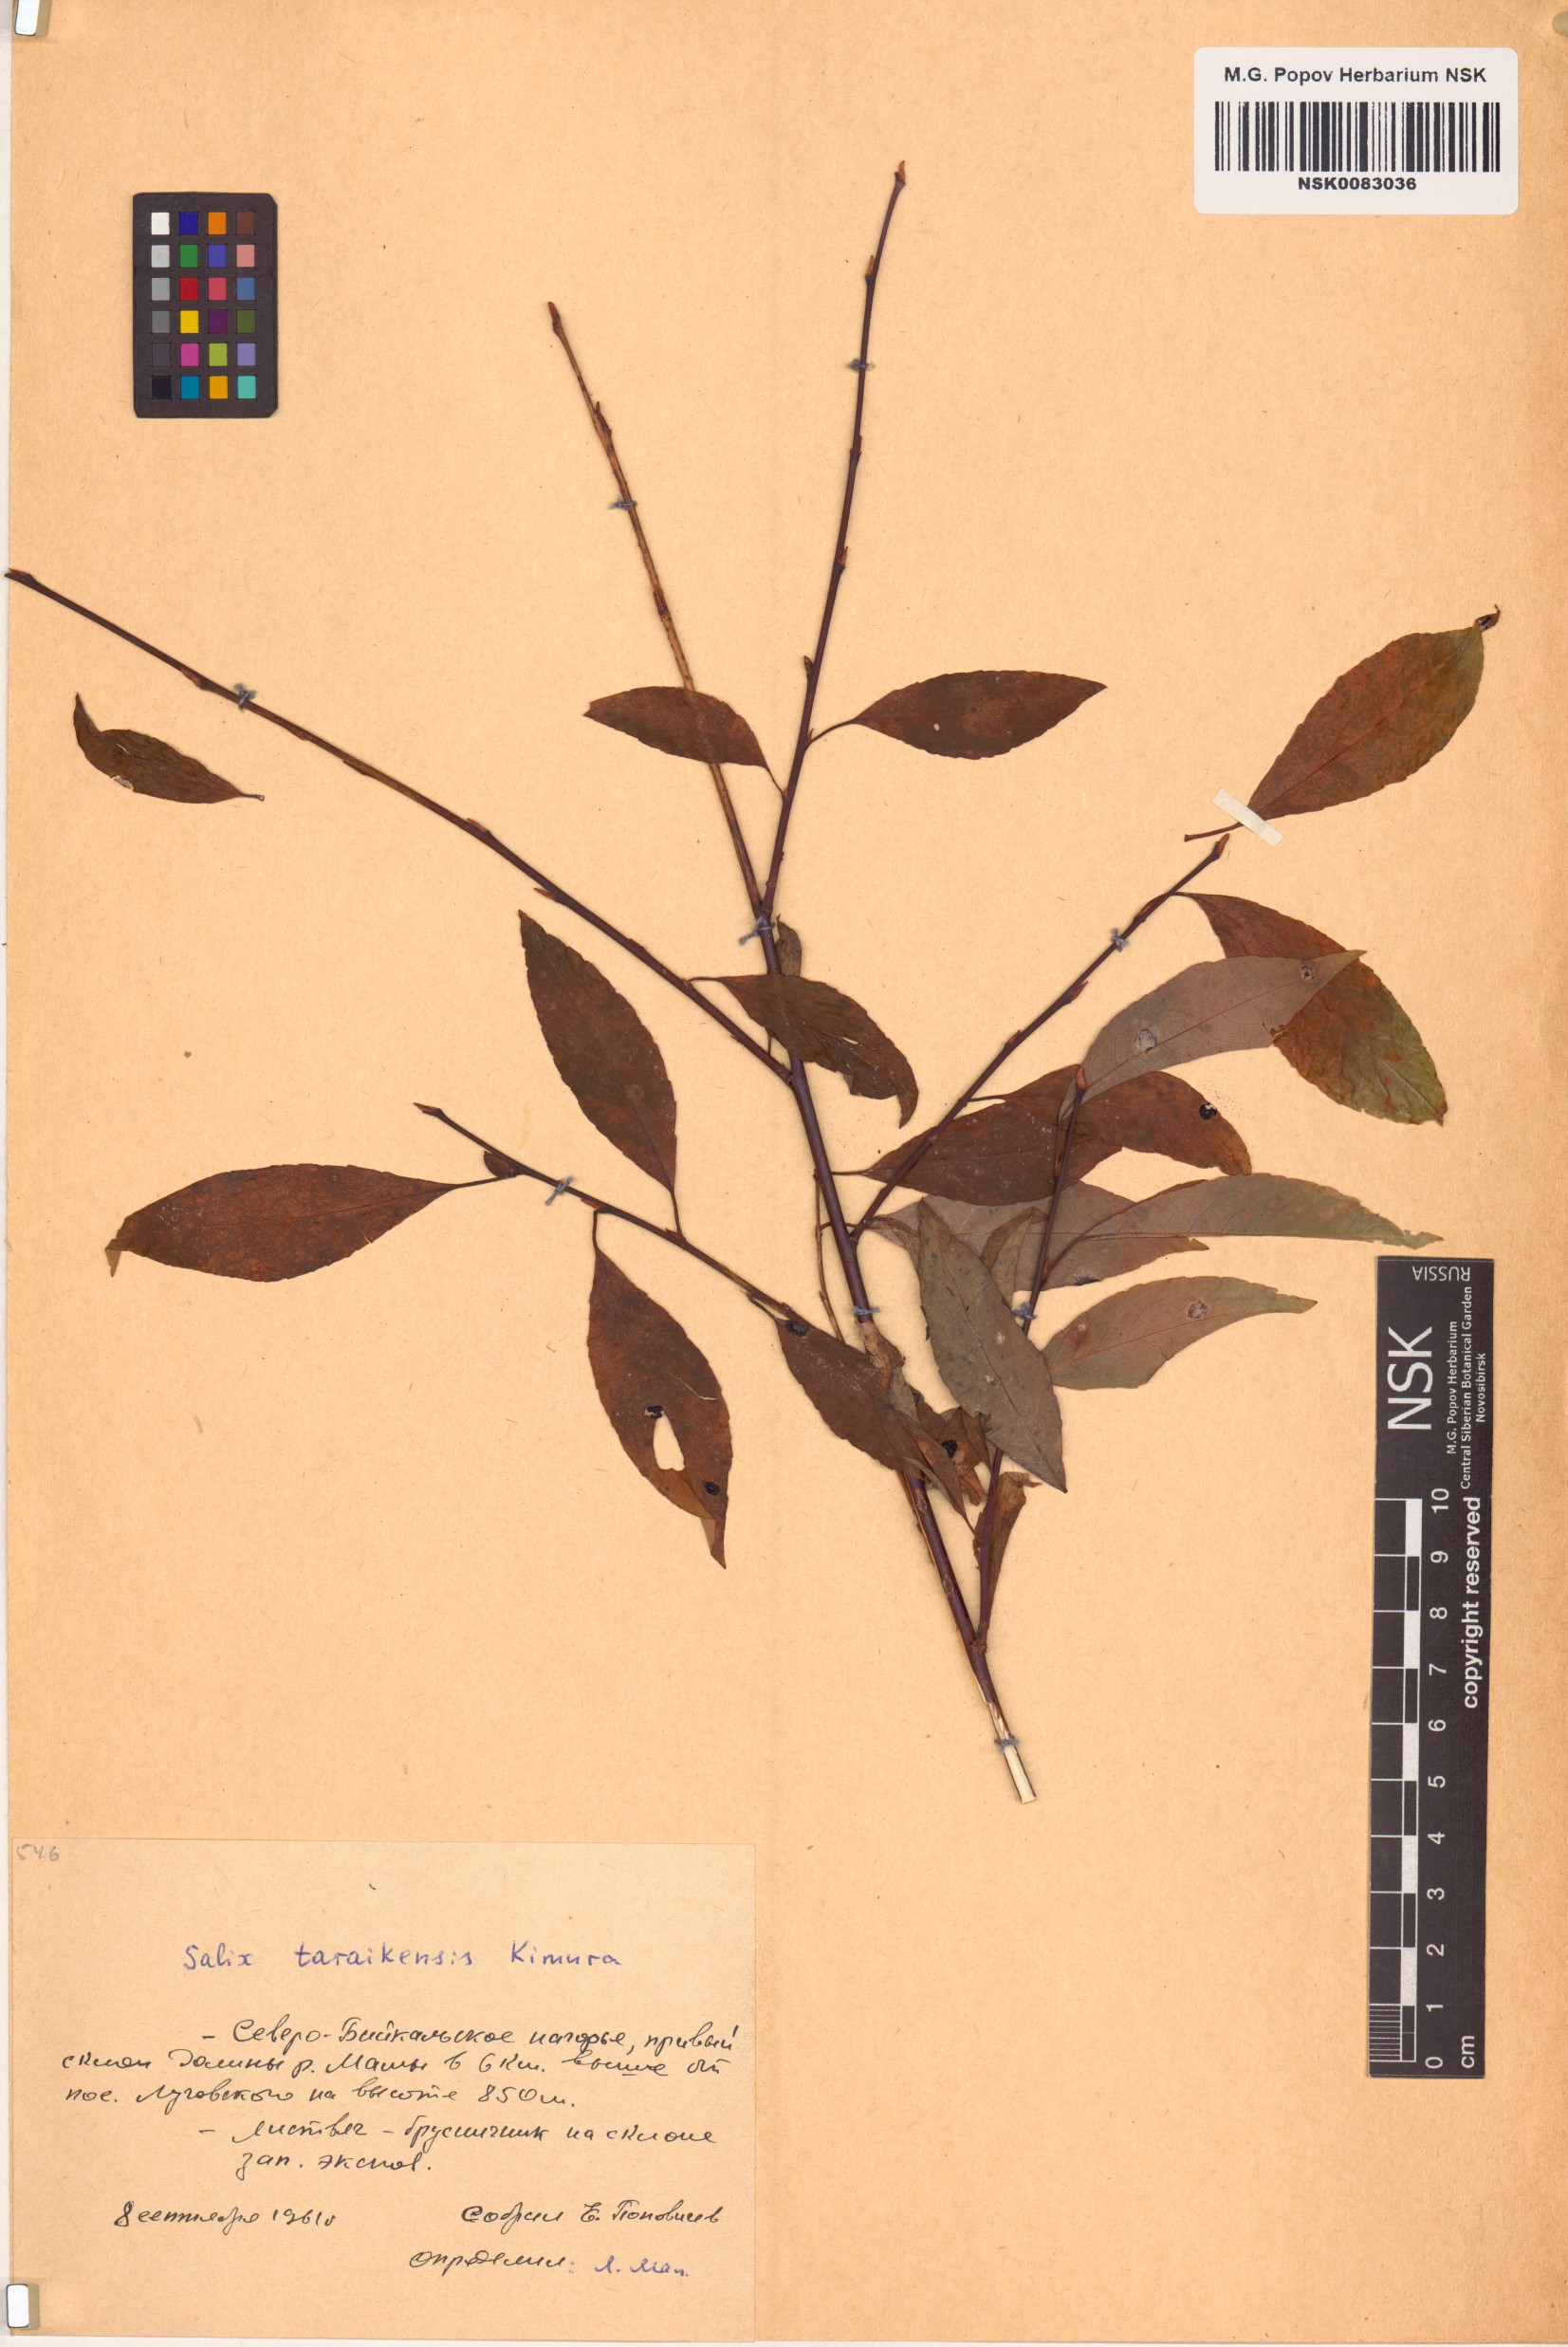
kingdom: Plantae
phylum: Tracheophyta
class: Magnoliopsida
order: Malpighiales
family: Salicaceae
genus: Salix
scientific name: Salix taraikensis
